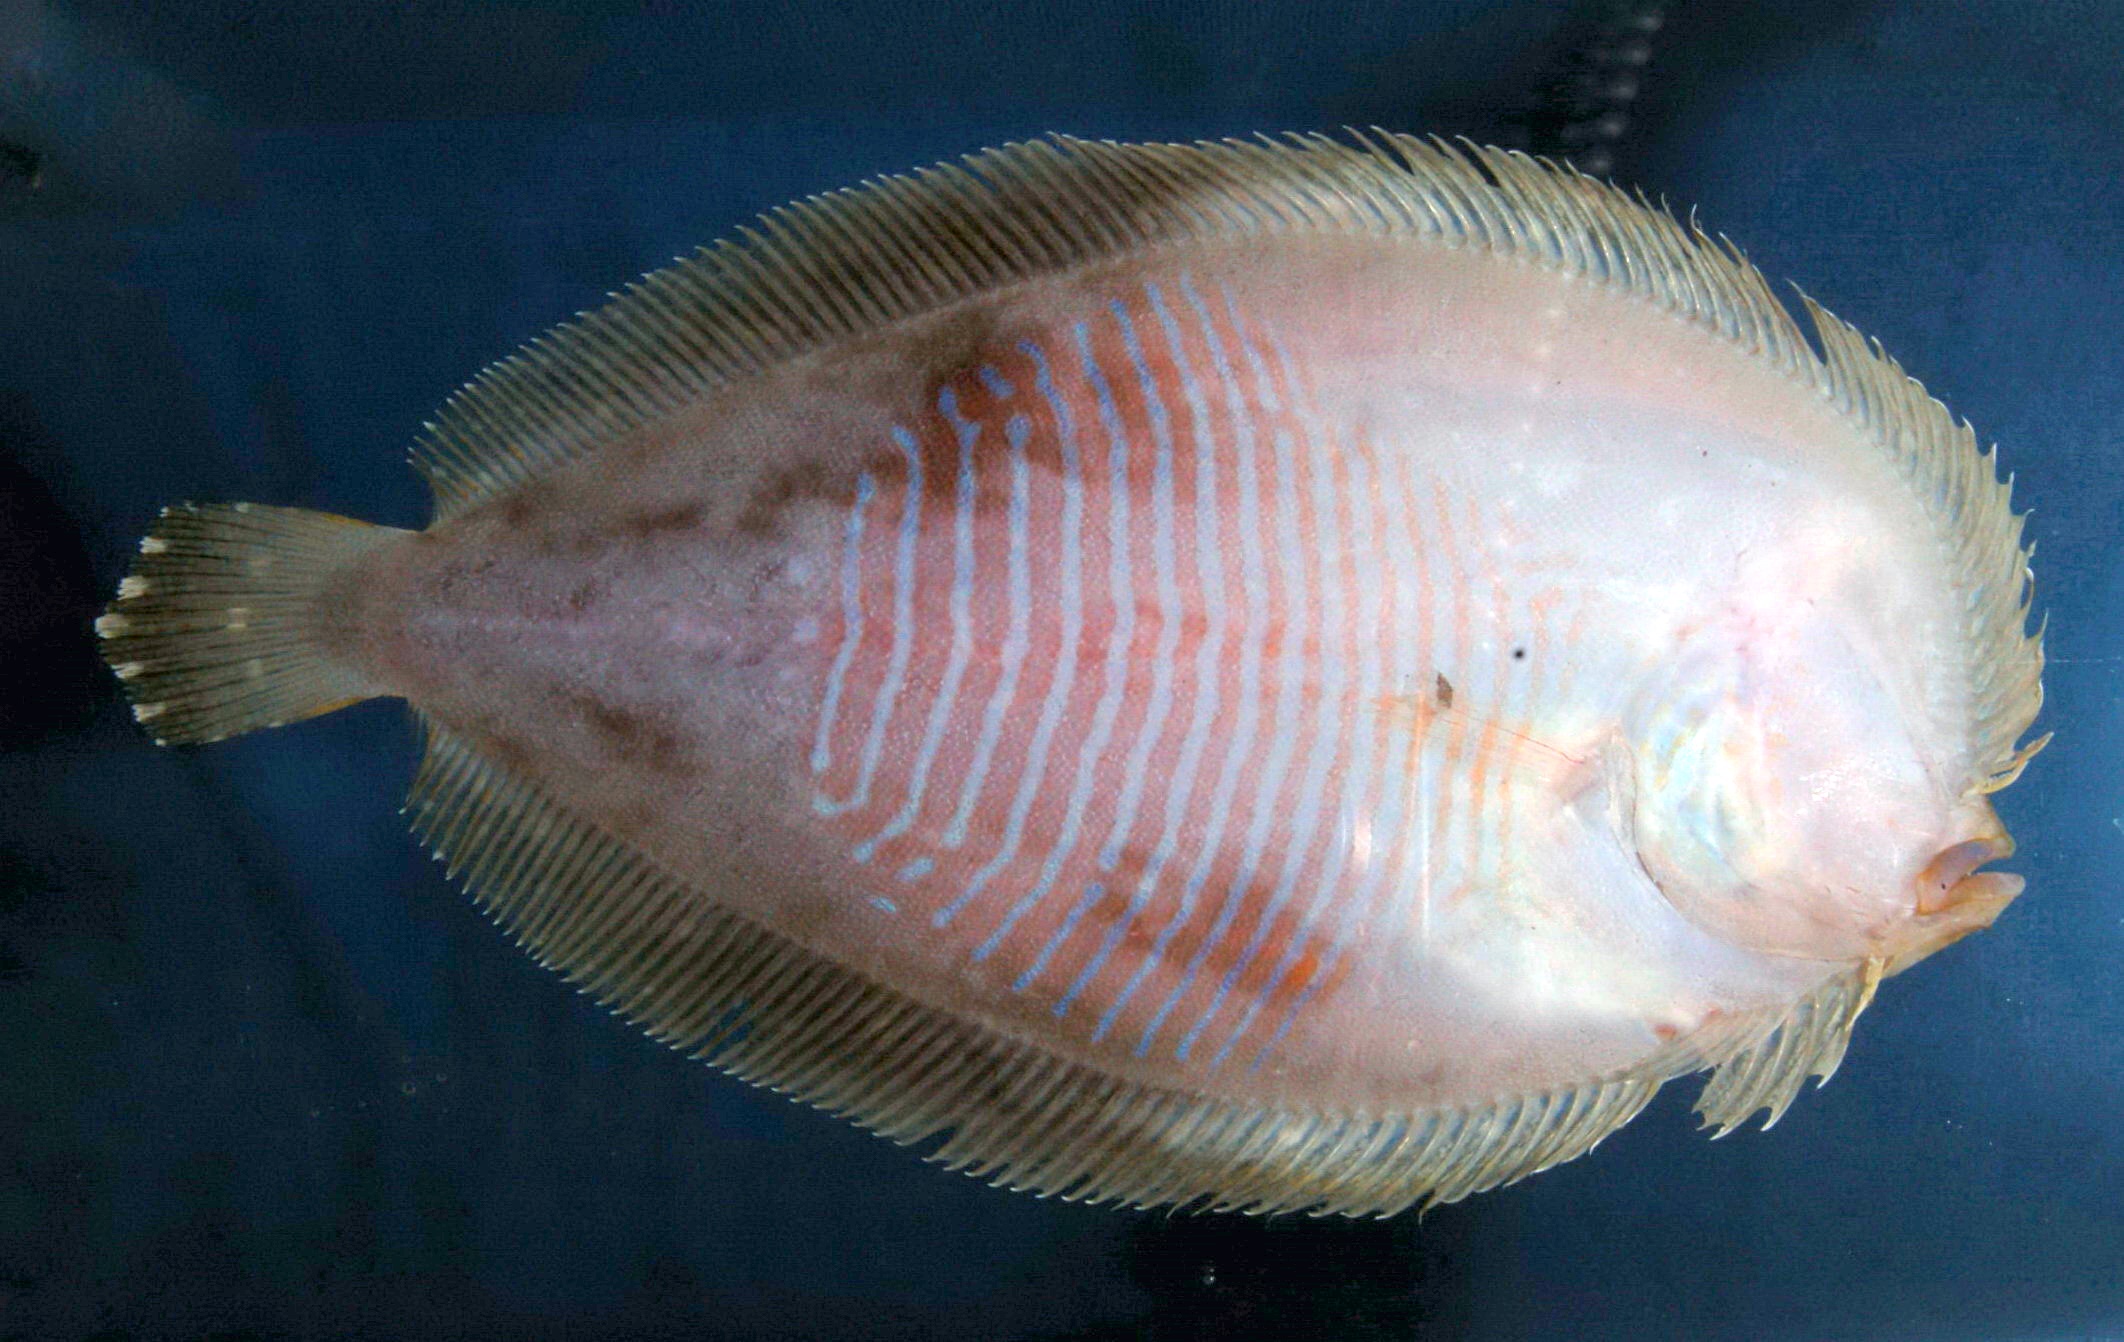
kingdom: Animalia
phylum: Chordata
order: Pleuronectiformes
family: Bothidae
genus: Bothus
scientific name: Bothus myriaster
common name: Disc flounder
